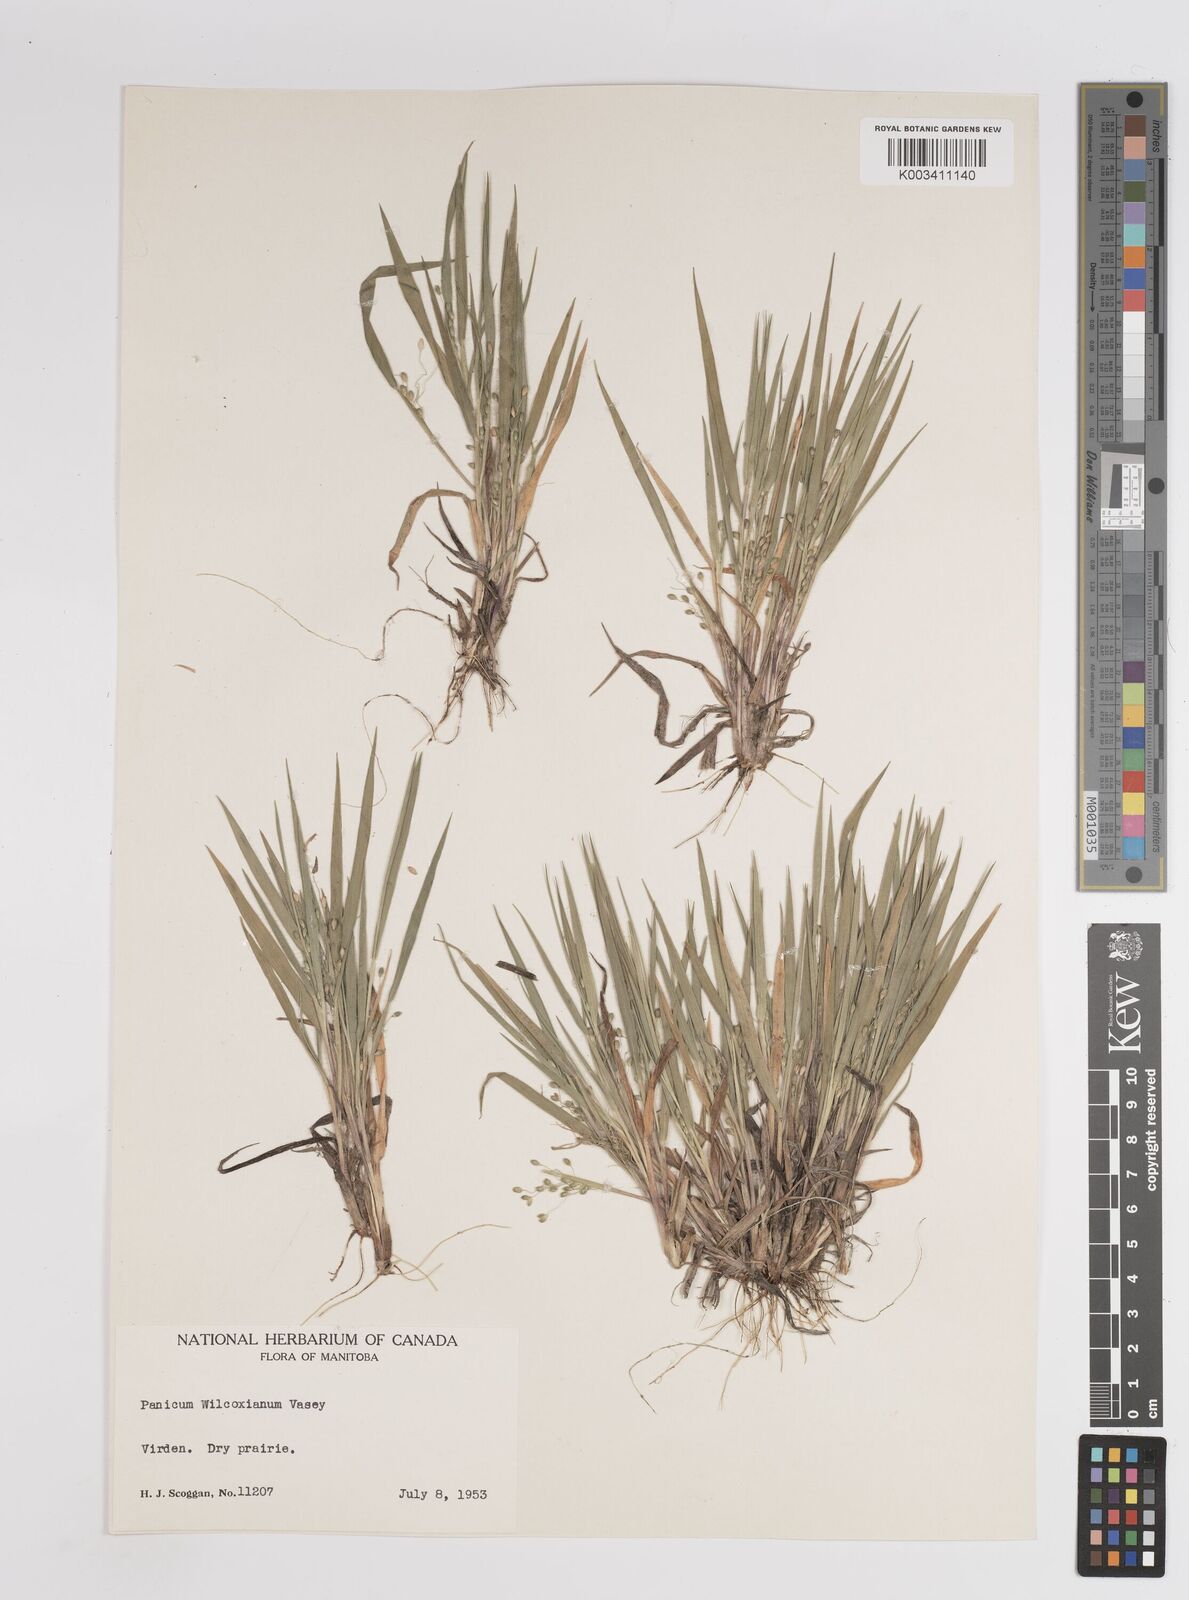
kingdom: Plantae
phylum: Tracheophyta
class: Liliopsida
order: Poales
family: Poaceae
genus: Dichanthelium
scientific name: Dichanthelium wilcoxianum
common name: Wilcox's panicgrass
